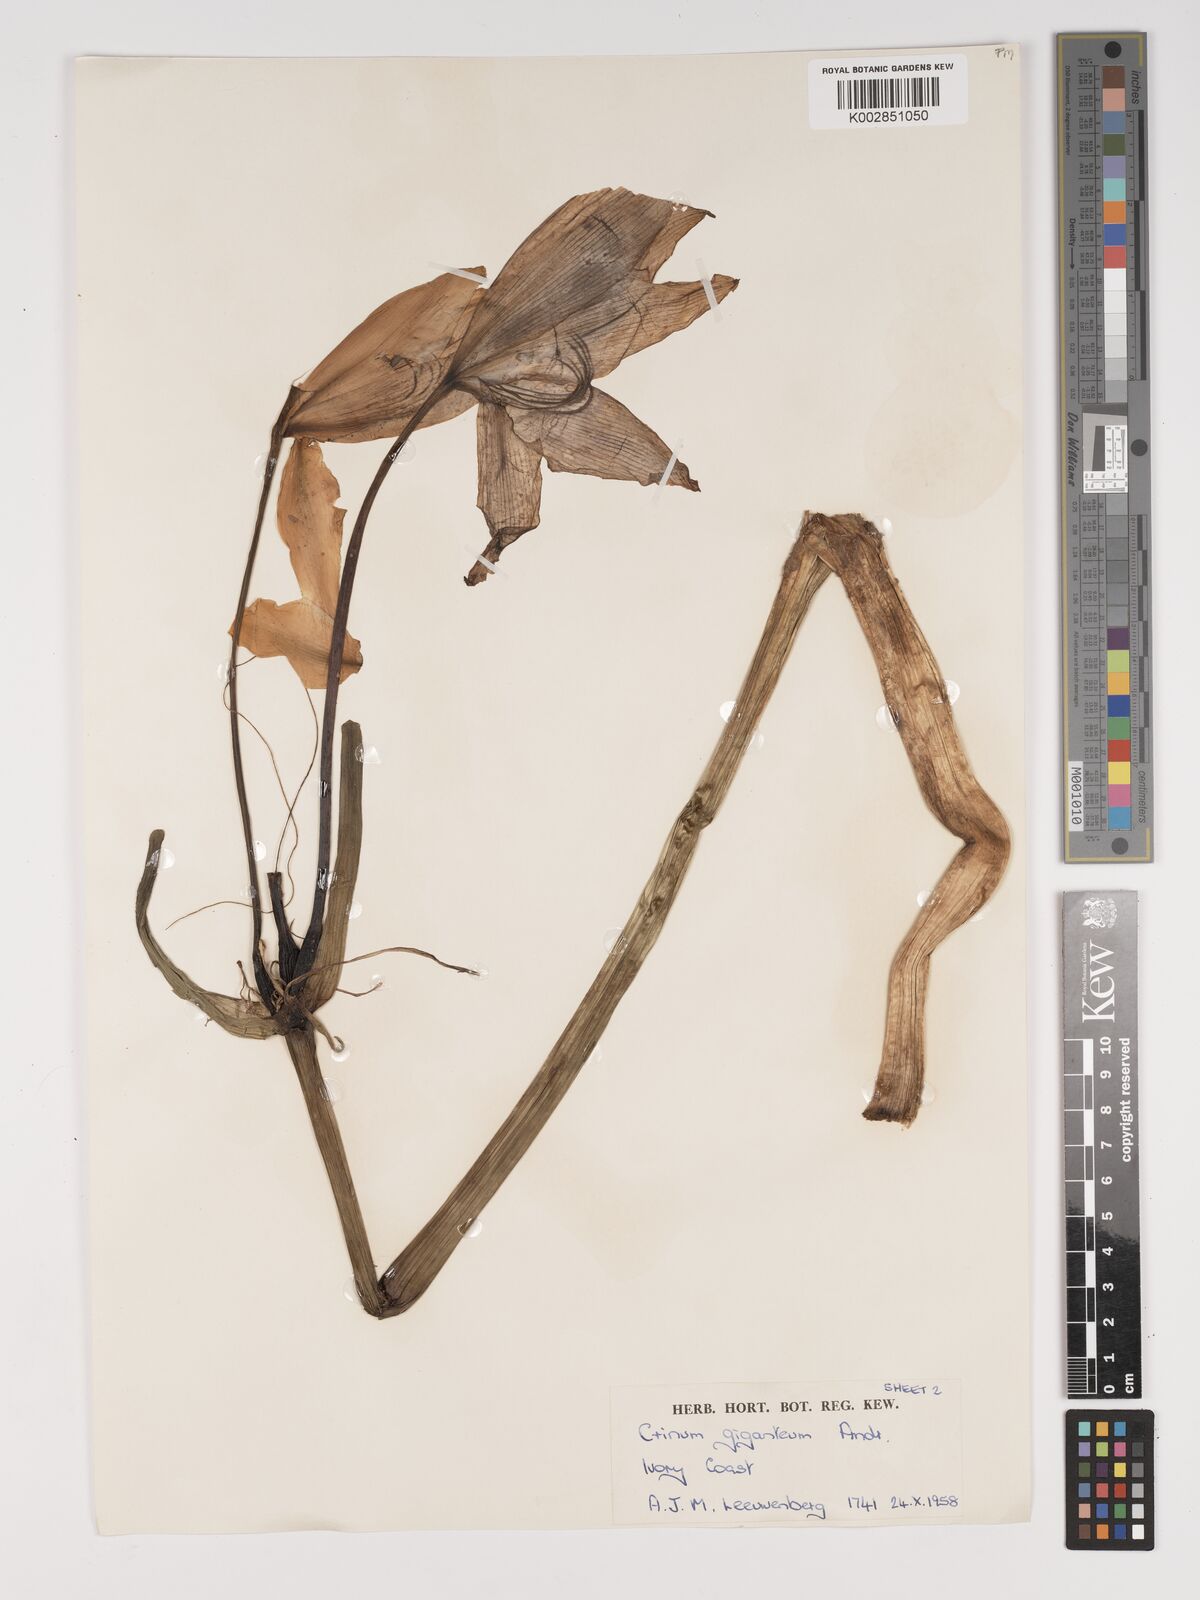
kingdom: Plantae
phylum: Tracheophyta
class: Liliopsida
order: Asparagales
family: Amaryllidaceae
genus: Crinum
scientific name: Crinum jagus
